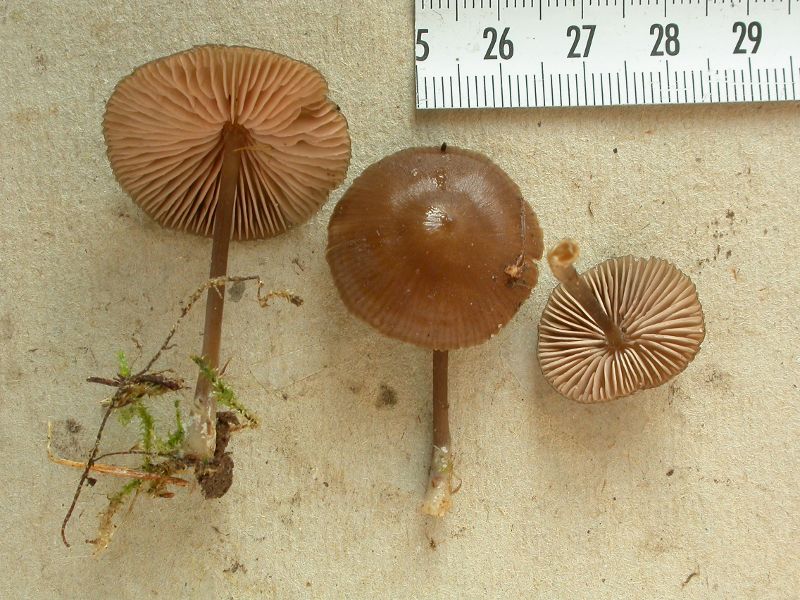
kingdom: Fungi
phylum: Basidiomycota
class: Agaricomycetes
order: Agaricales
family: Entolomataceae
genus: Entoloma
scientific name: Entoloma infula
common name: hvidbladet rødblad
